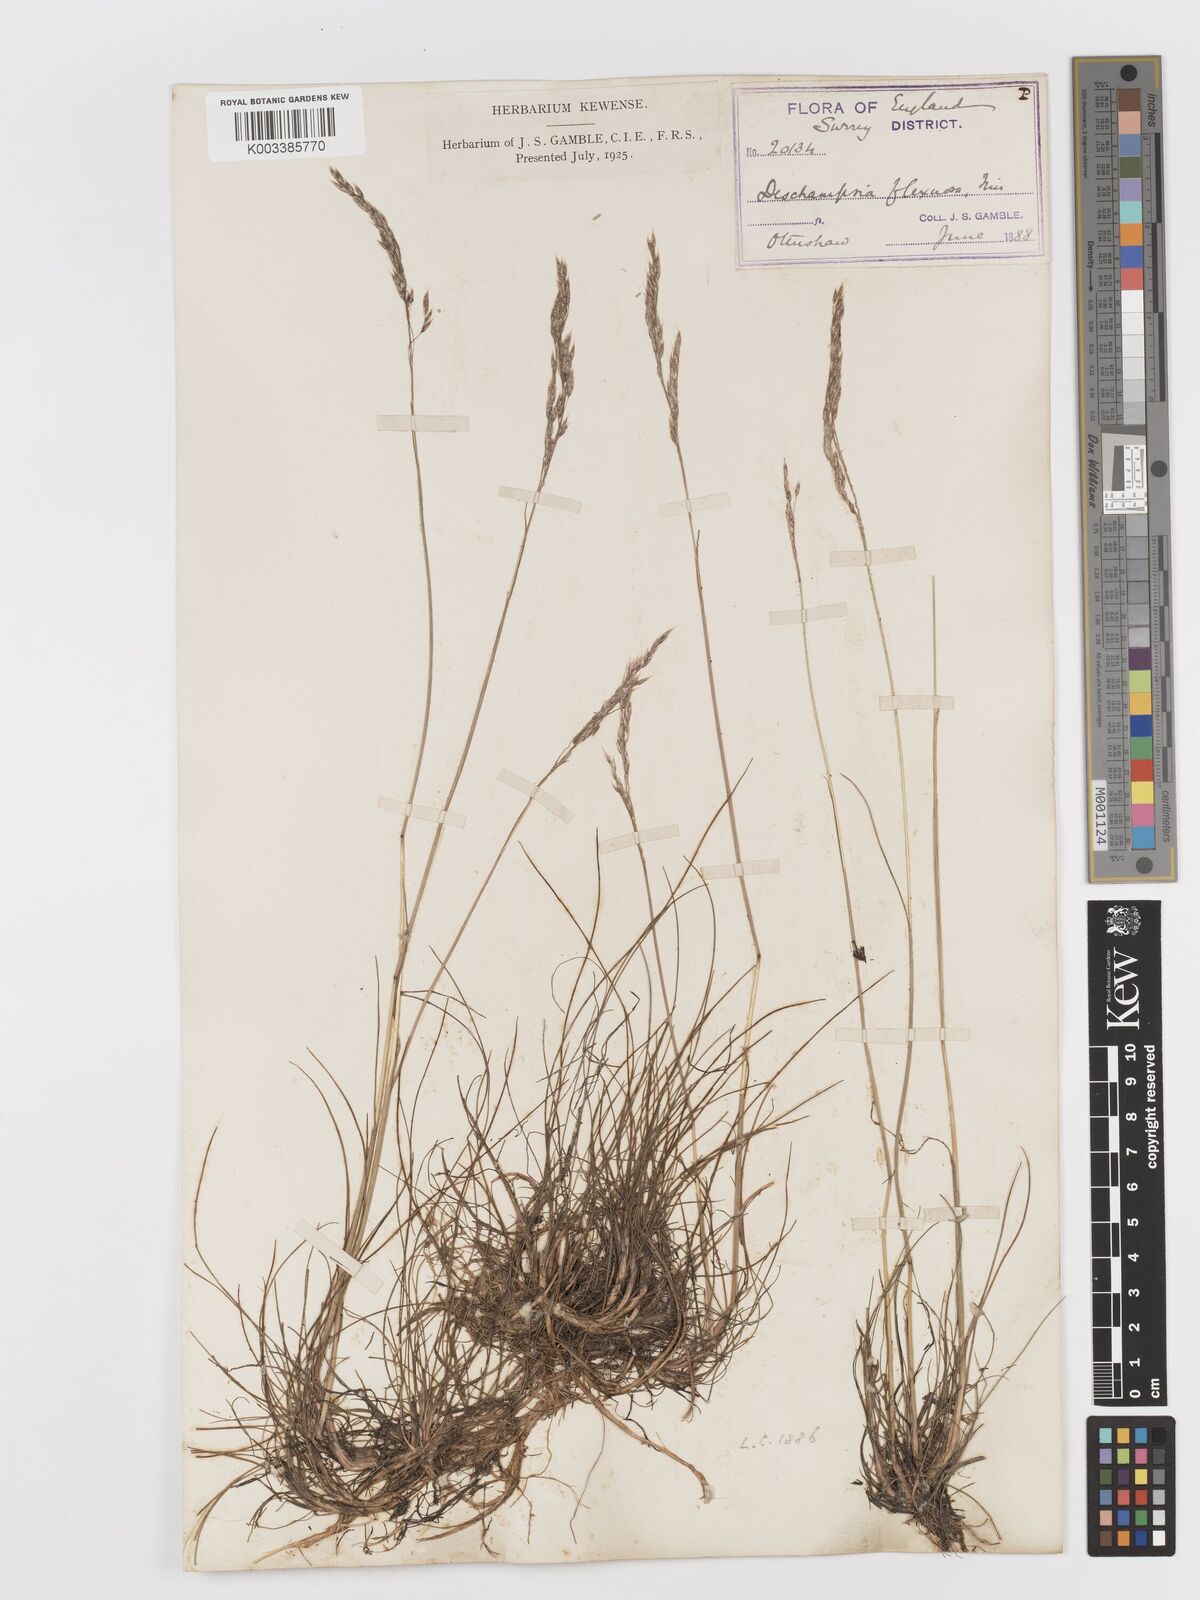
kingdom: Plantae
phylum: Tracheophyta
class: Liliopsida
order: Poales
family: Poaceae
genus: Avenella
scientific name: Avenella flexuosa
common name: Wavy hairgrass
